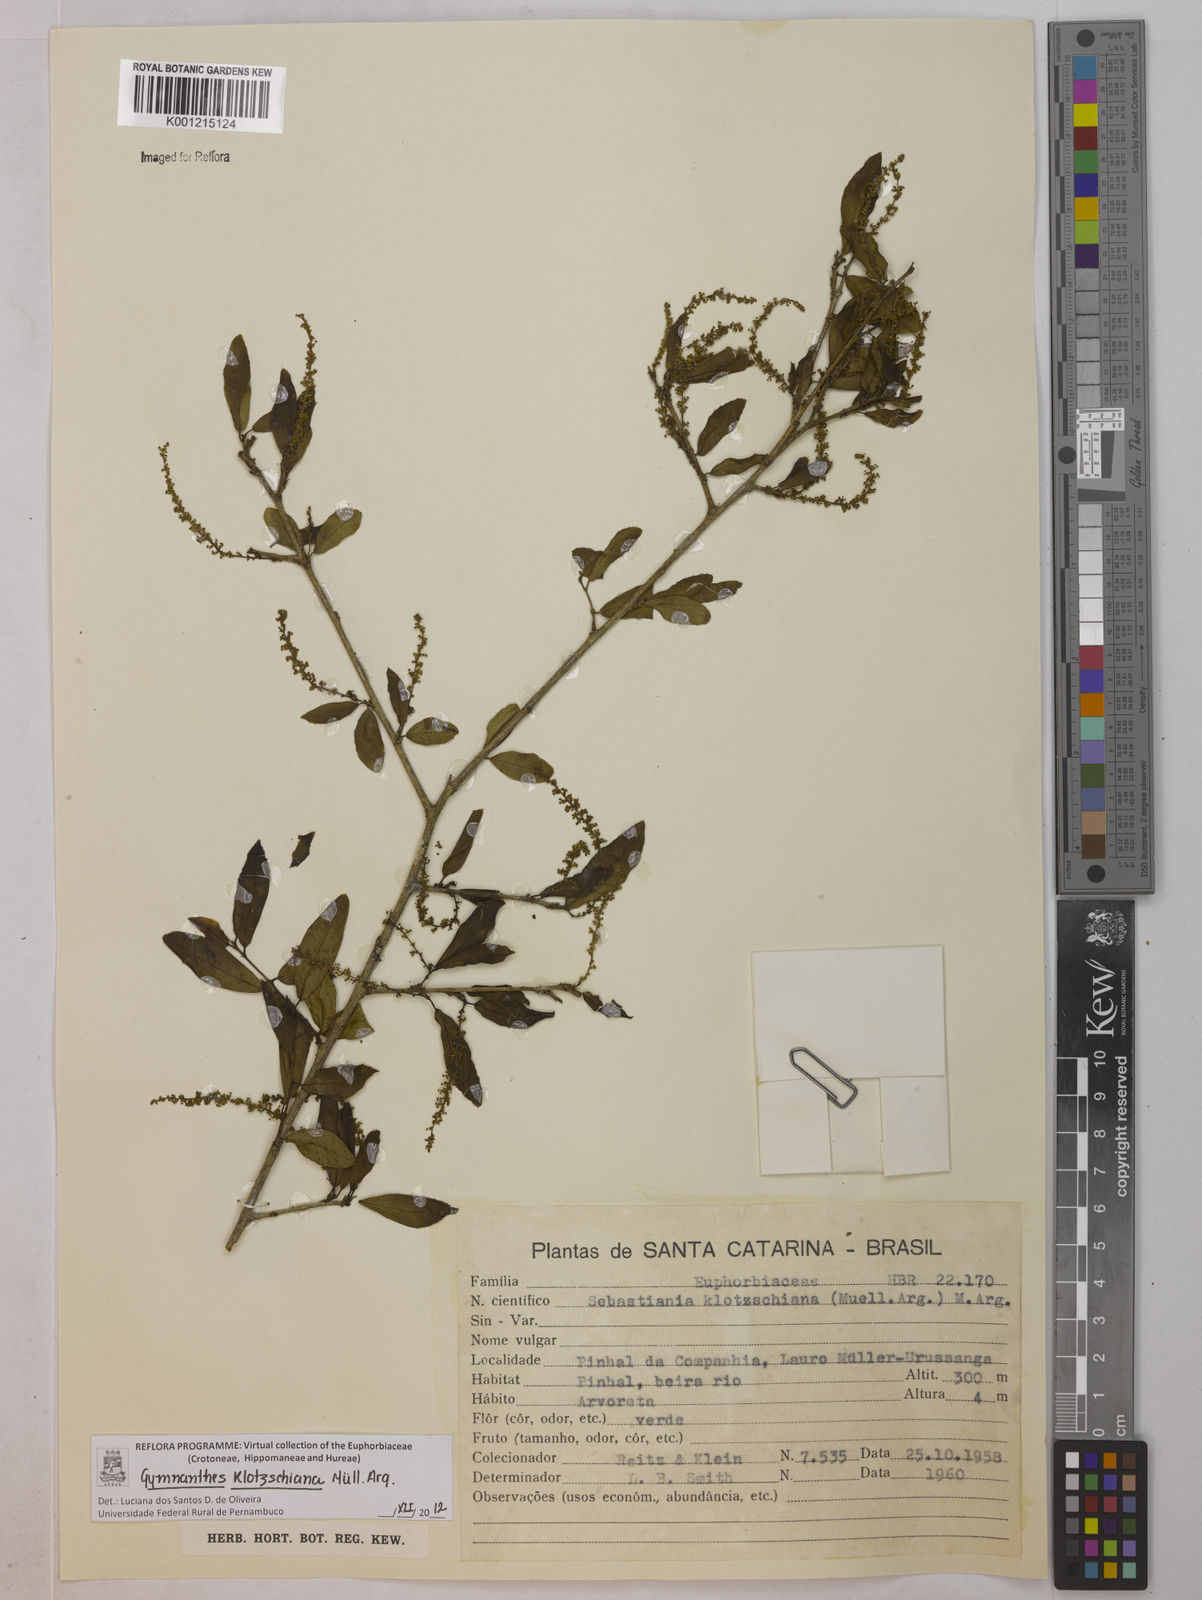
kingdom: Plantae
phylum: Tracheophyta
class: Magnoliopsida
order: Malpighiales
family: Euphorbiaceae
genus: Gymnanthes
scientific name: Gymnanthes
